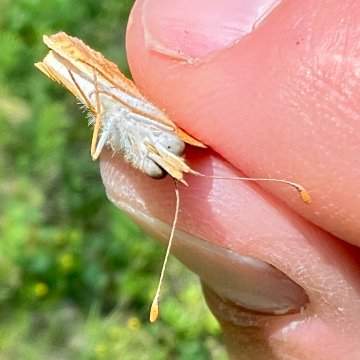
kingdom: Animalia
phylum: Arthropoda
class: Insecta
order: Lepidoptera
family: Nymphalidae
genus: Phyciodes
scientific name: Phyciodes tharos
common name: Northern Crescent
